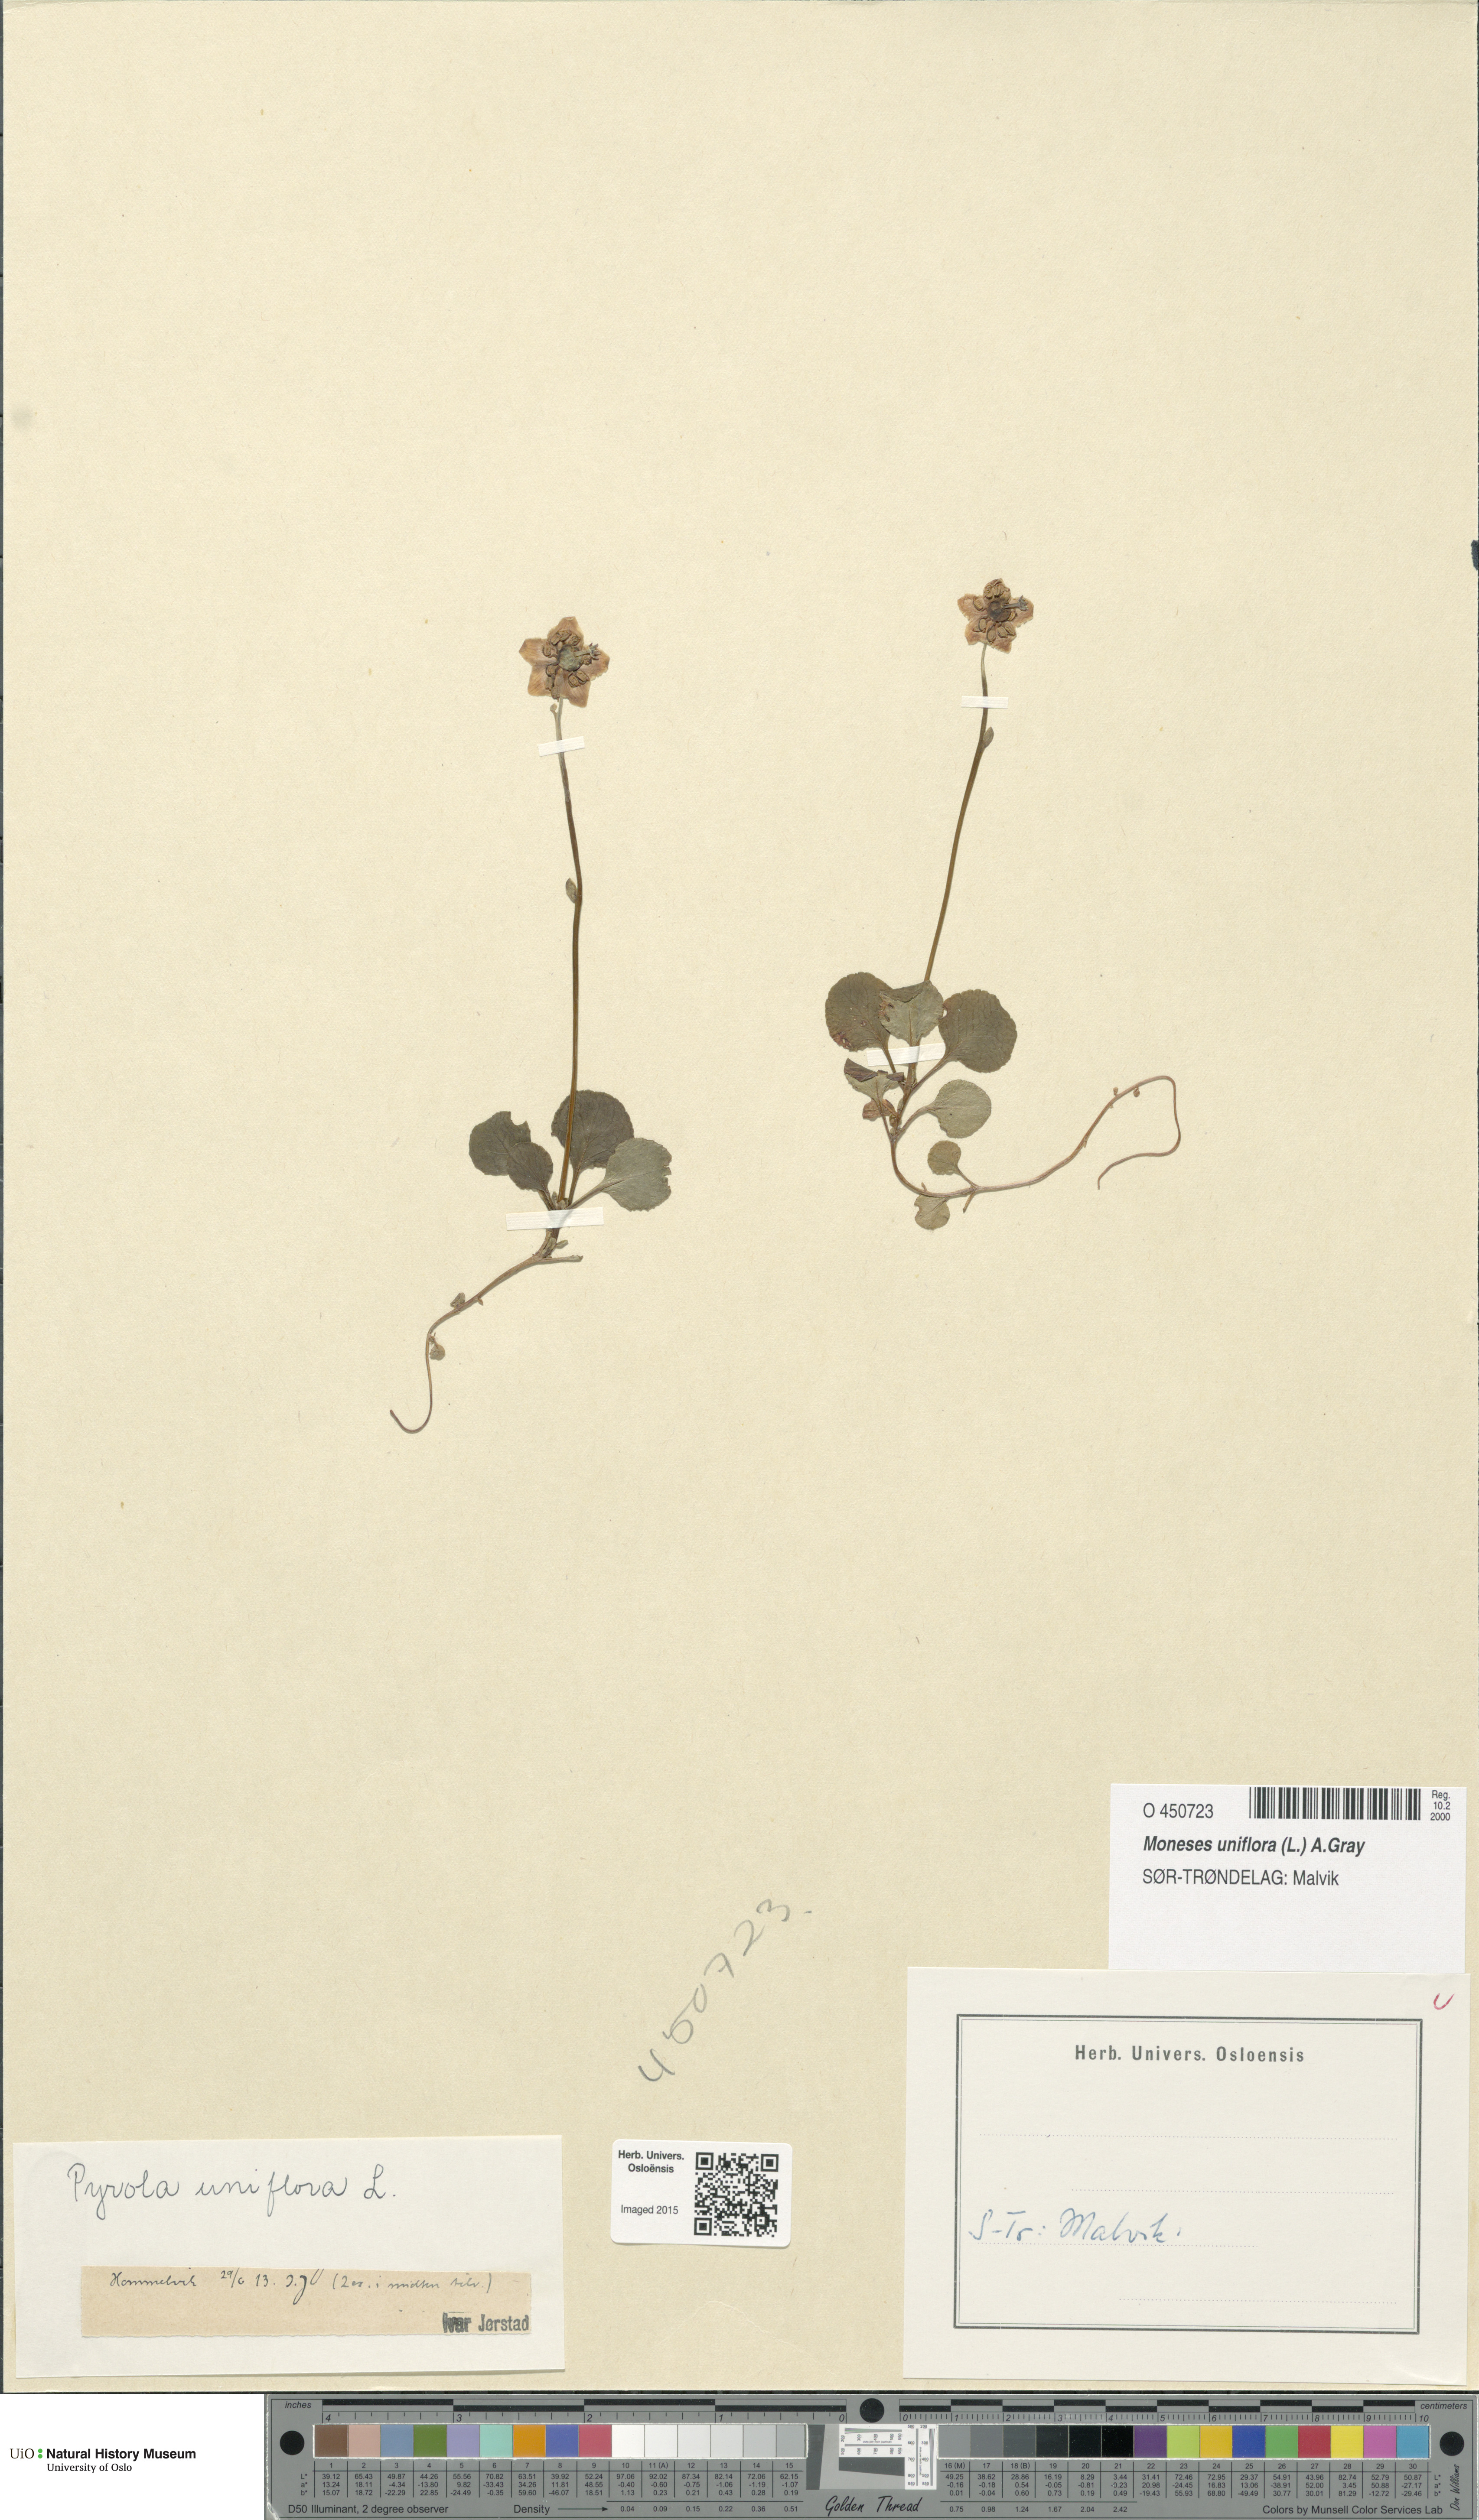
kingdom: Plantae
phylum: Tracheophyta
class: Magnoliopsida
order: Ericales
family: Ericaceae
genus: Moneses
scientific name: Moneses uniflora
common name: One-flowered wintergreen
